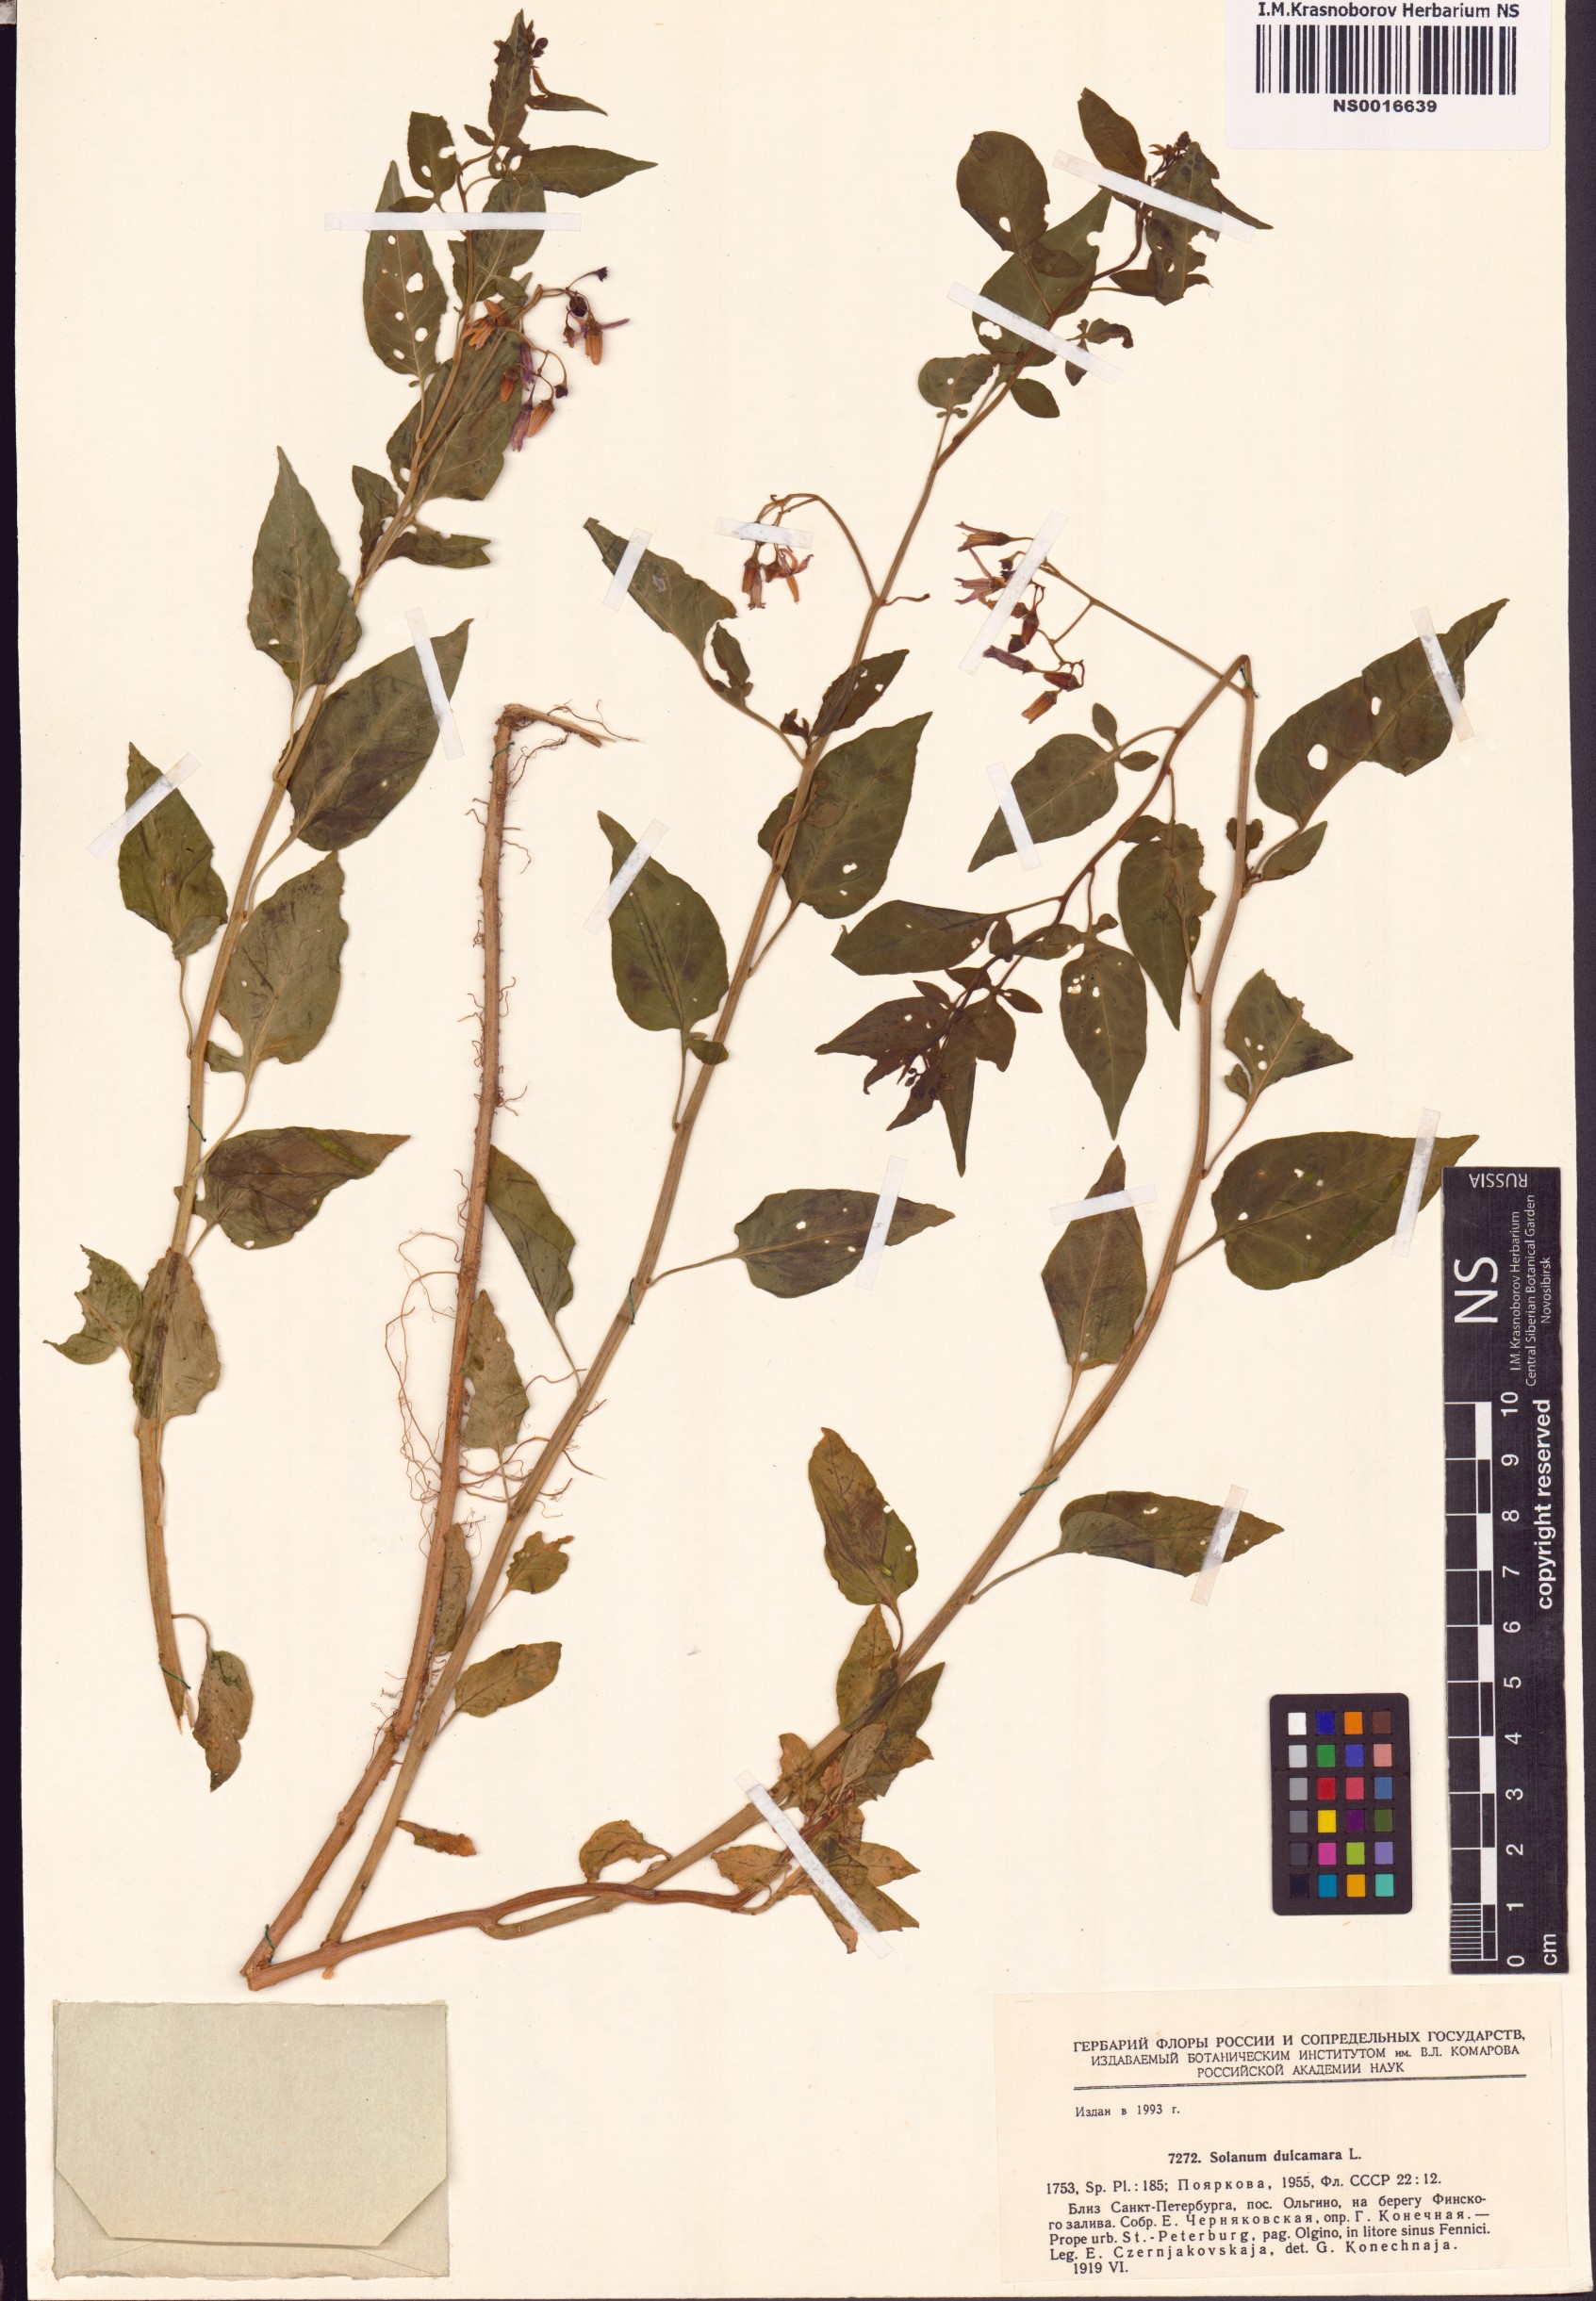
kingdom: Plantae
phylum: Tracheophyta
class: Magnoliopsida
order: Solanales
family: Solanaceae
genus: Solanum
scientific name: Solanum dulcamara
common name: Climbing nightshade
